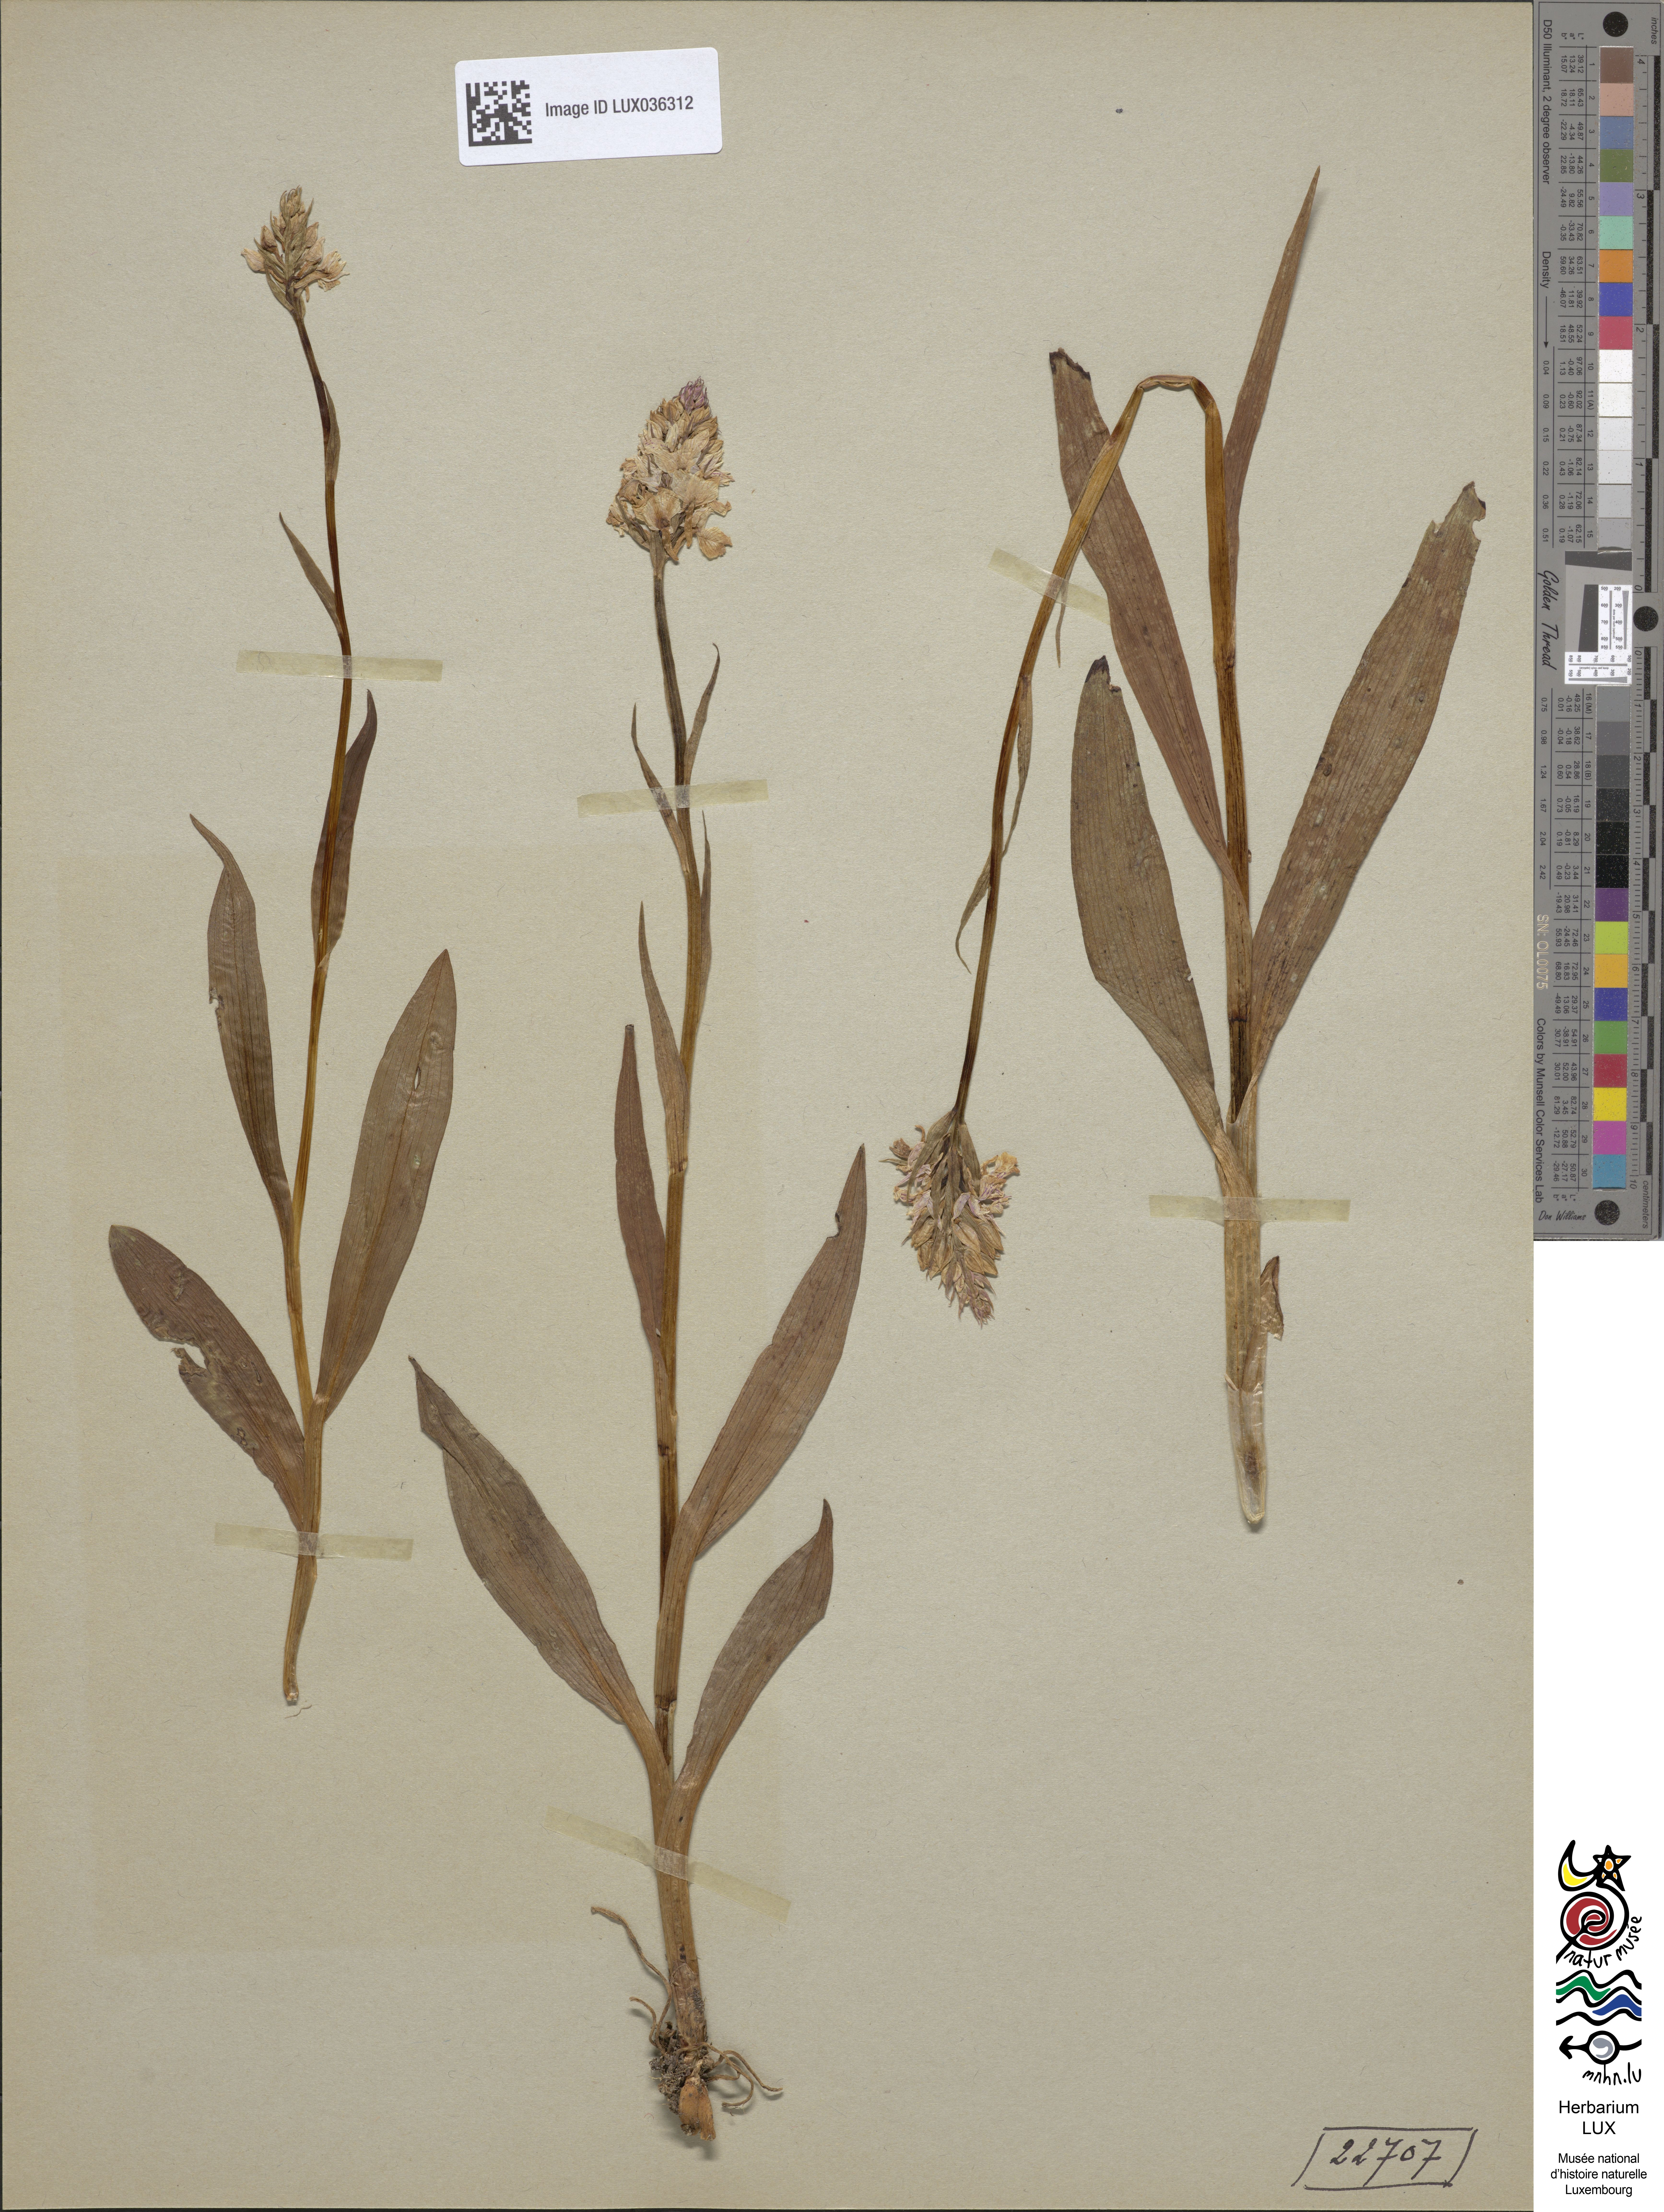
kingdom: Plantae
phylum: Tracheophyta
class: Liliopsida
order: Asparagales
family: Orchidaceae
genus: Dactylorhiza
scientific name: Dactylorhiza maculata
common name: Heath spotted-orchid
